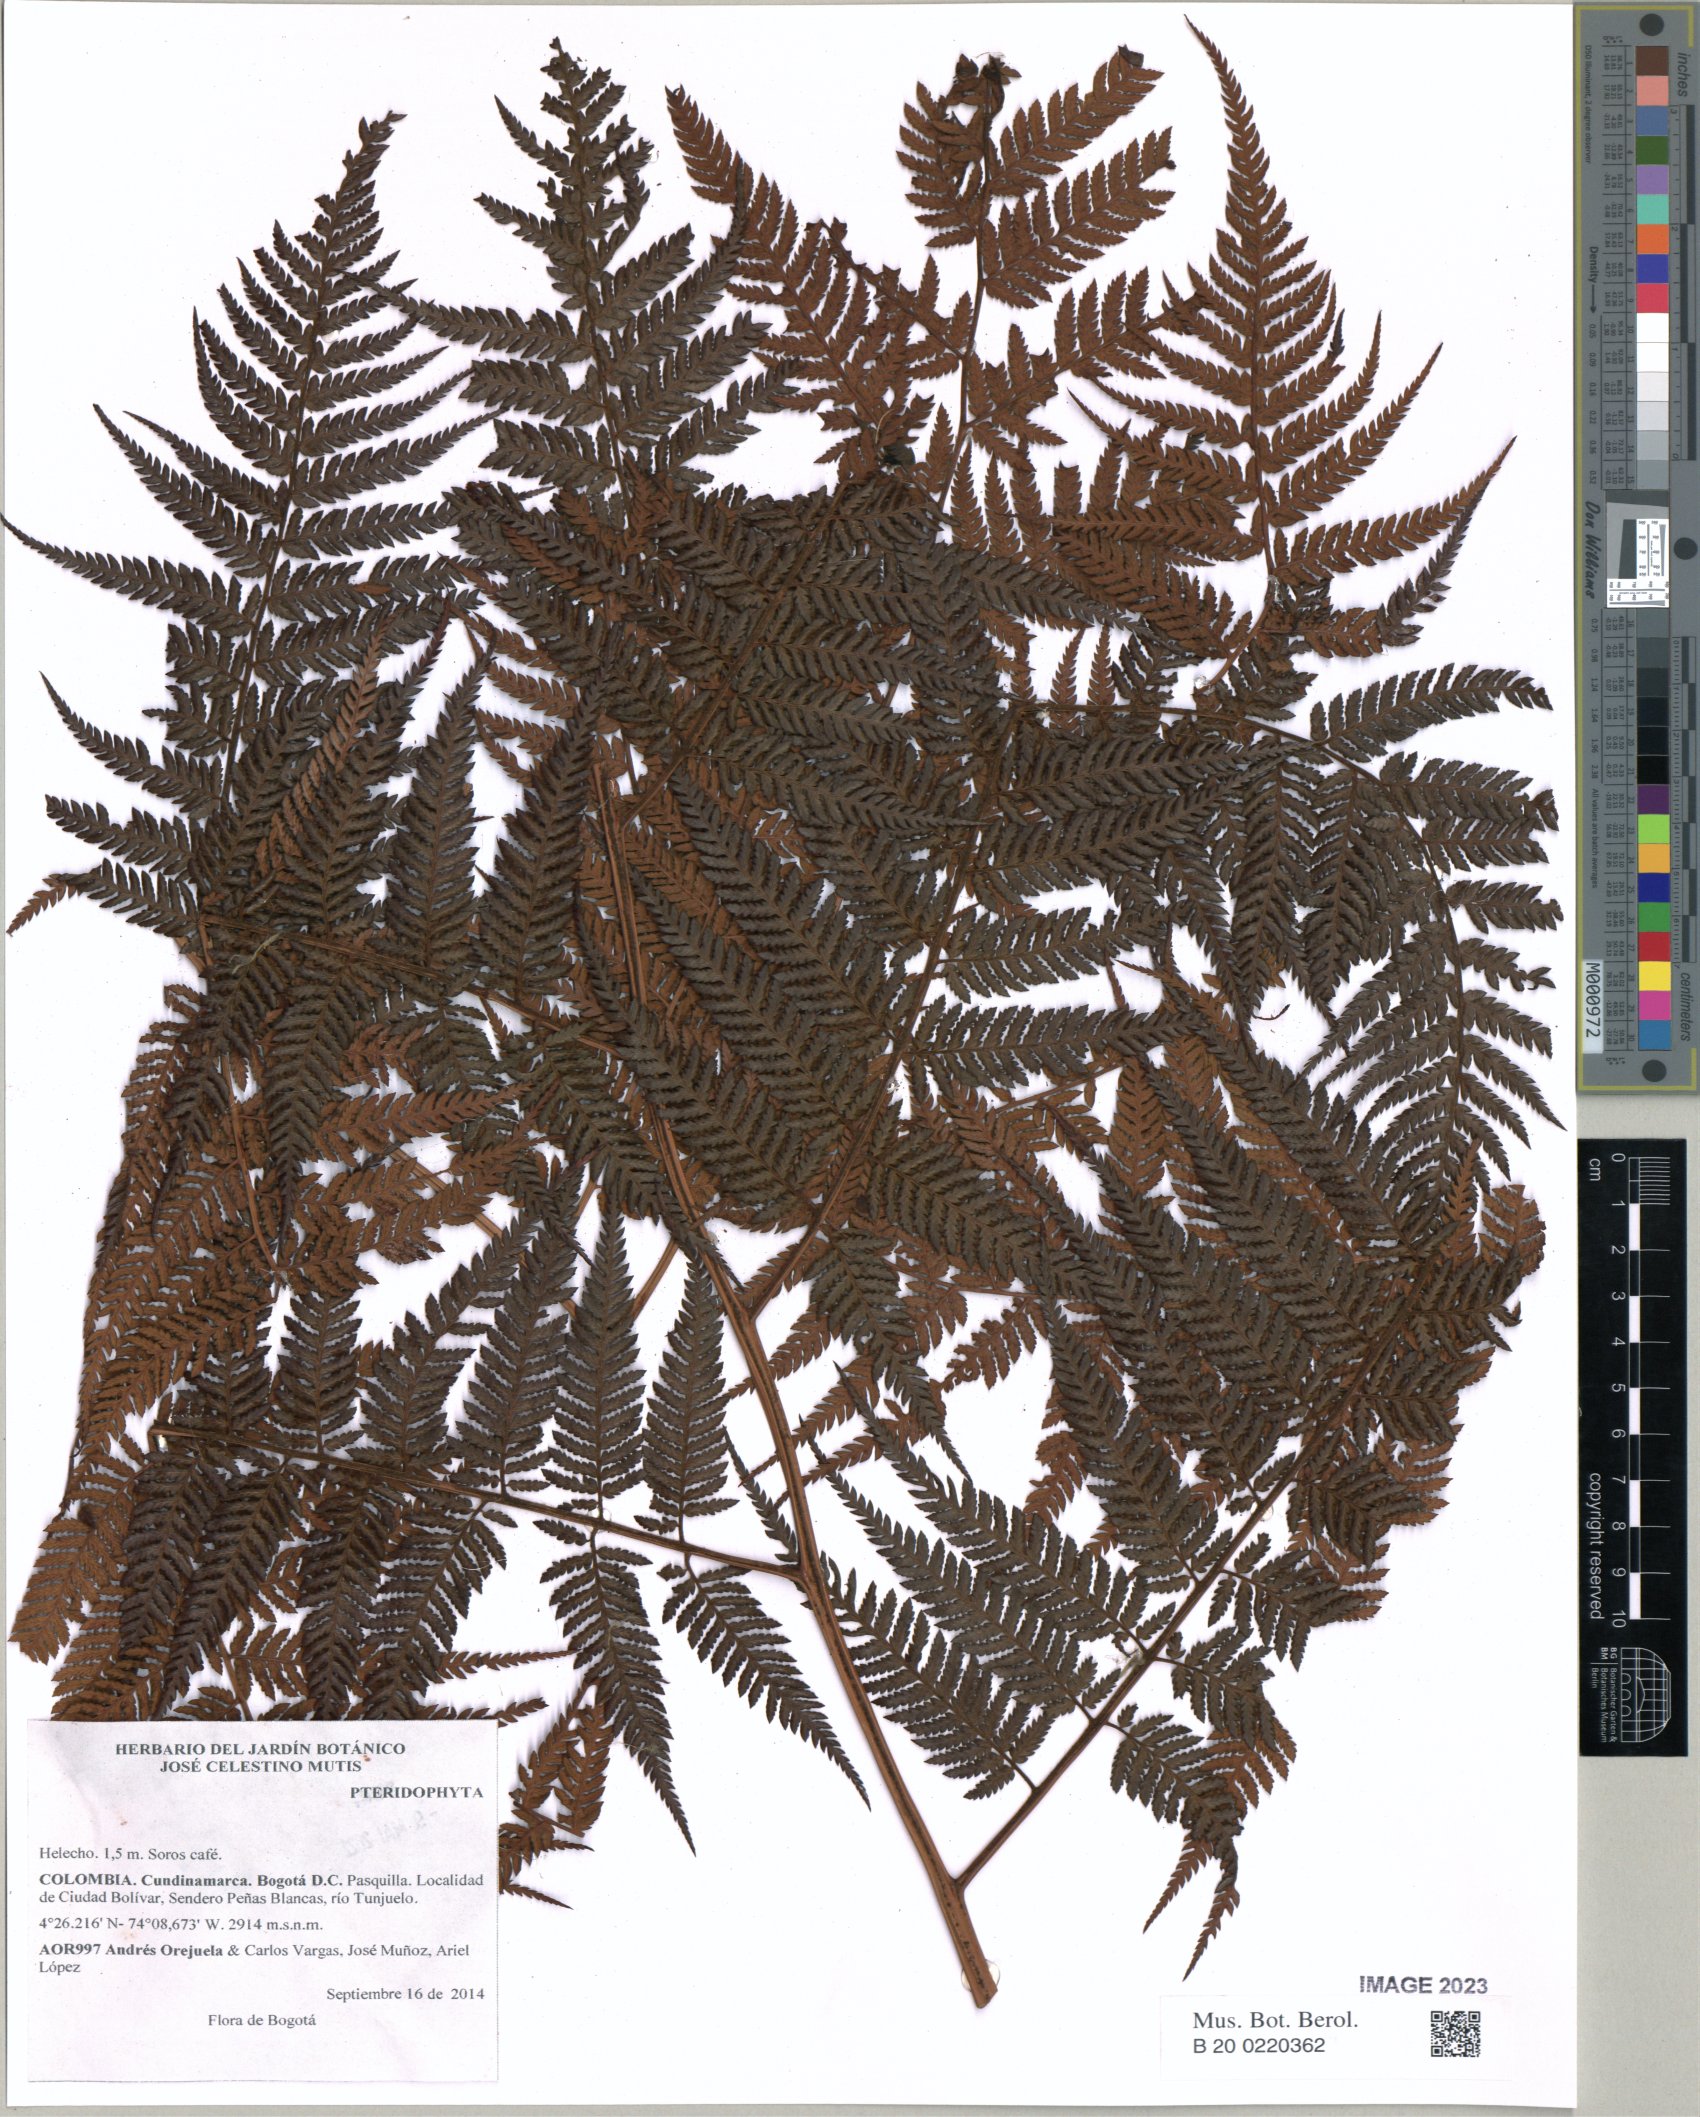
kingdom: Plantae
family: Pteridophyta
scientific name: Pteridophyta
